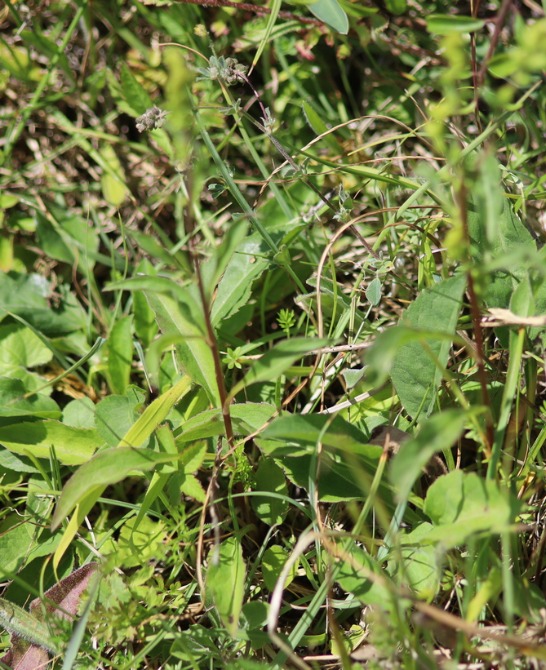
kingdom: Plantae
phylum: Tracheophyta
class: Magnoliopsida
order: Asterales
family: Asteraceae
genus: Solidago
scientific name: Solidago virgaurea
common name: Almindelig gyldenris
